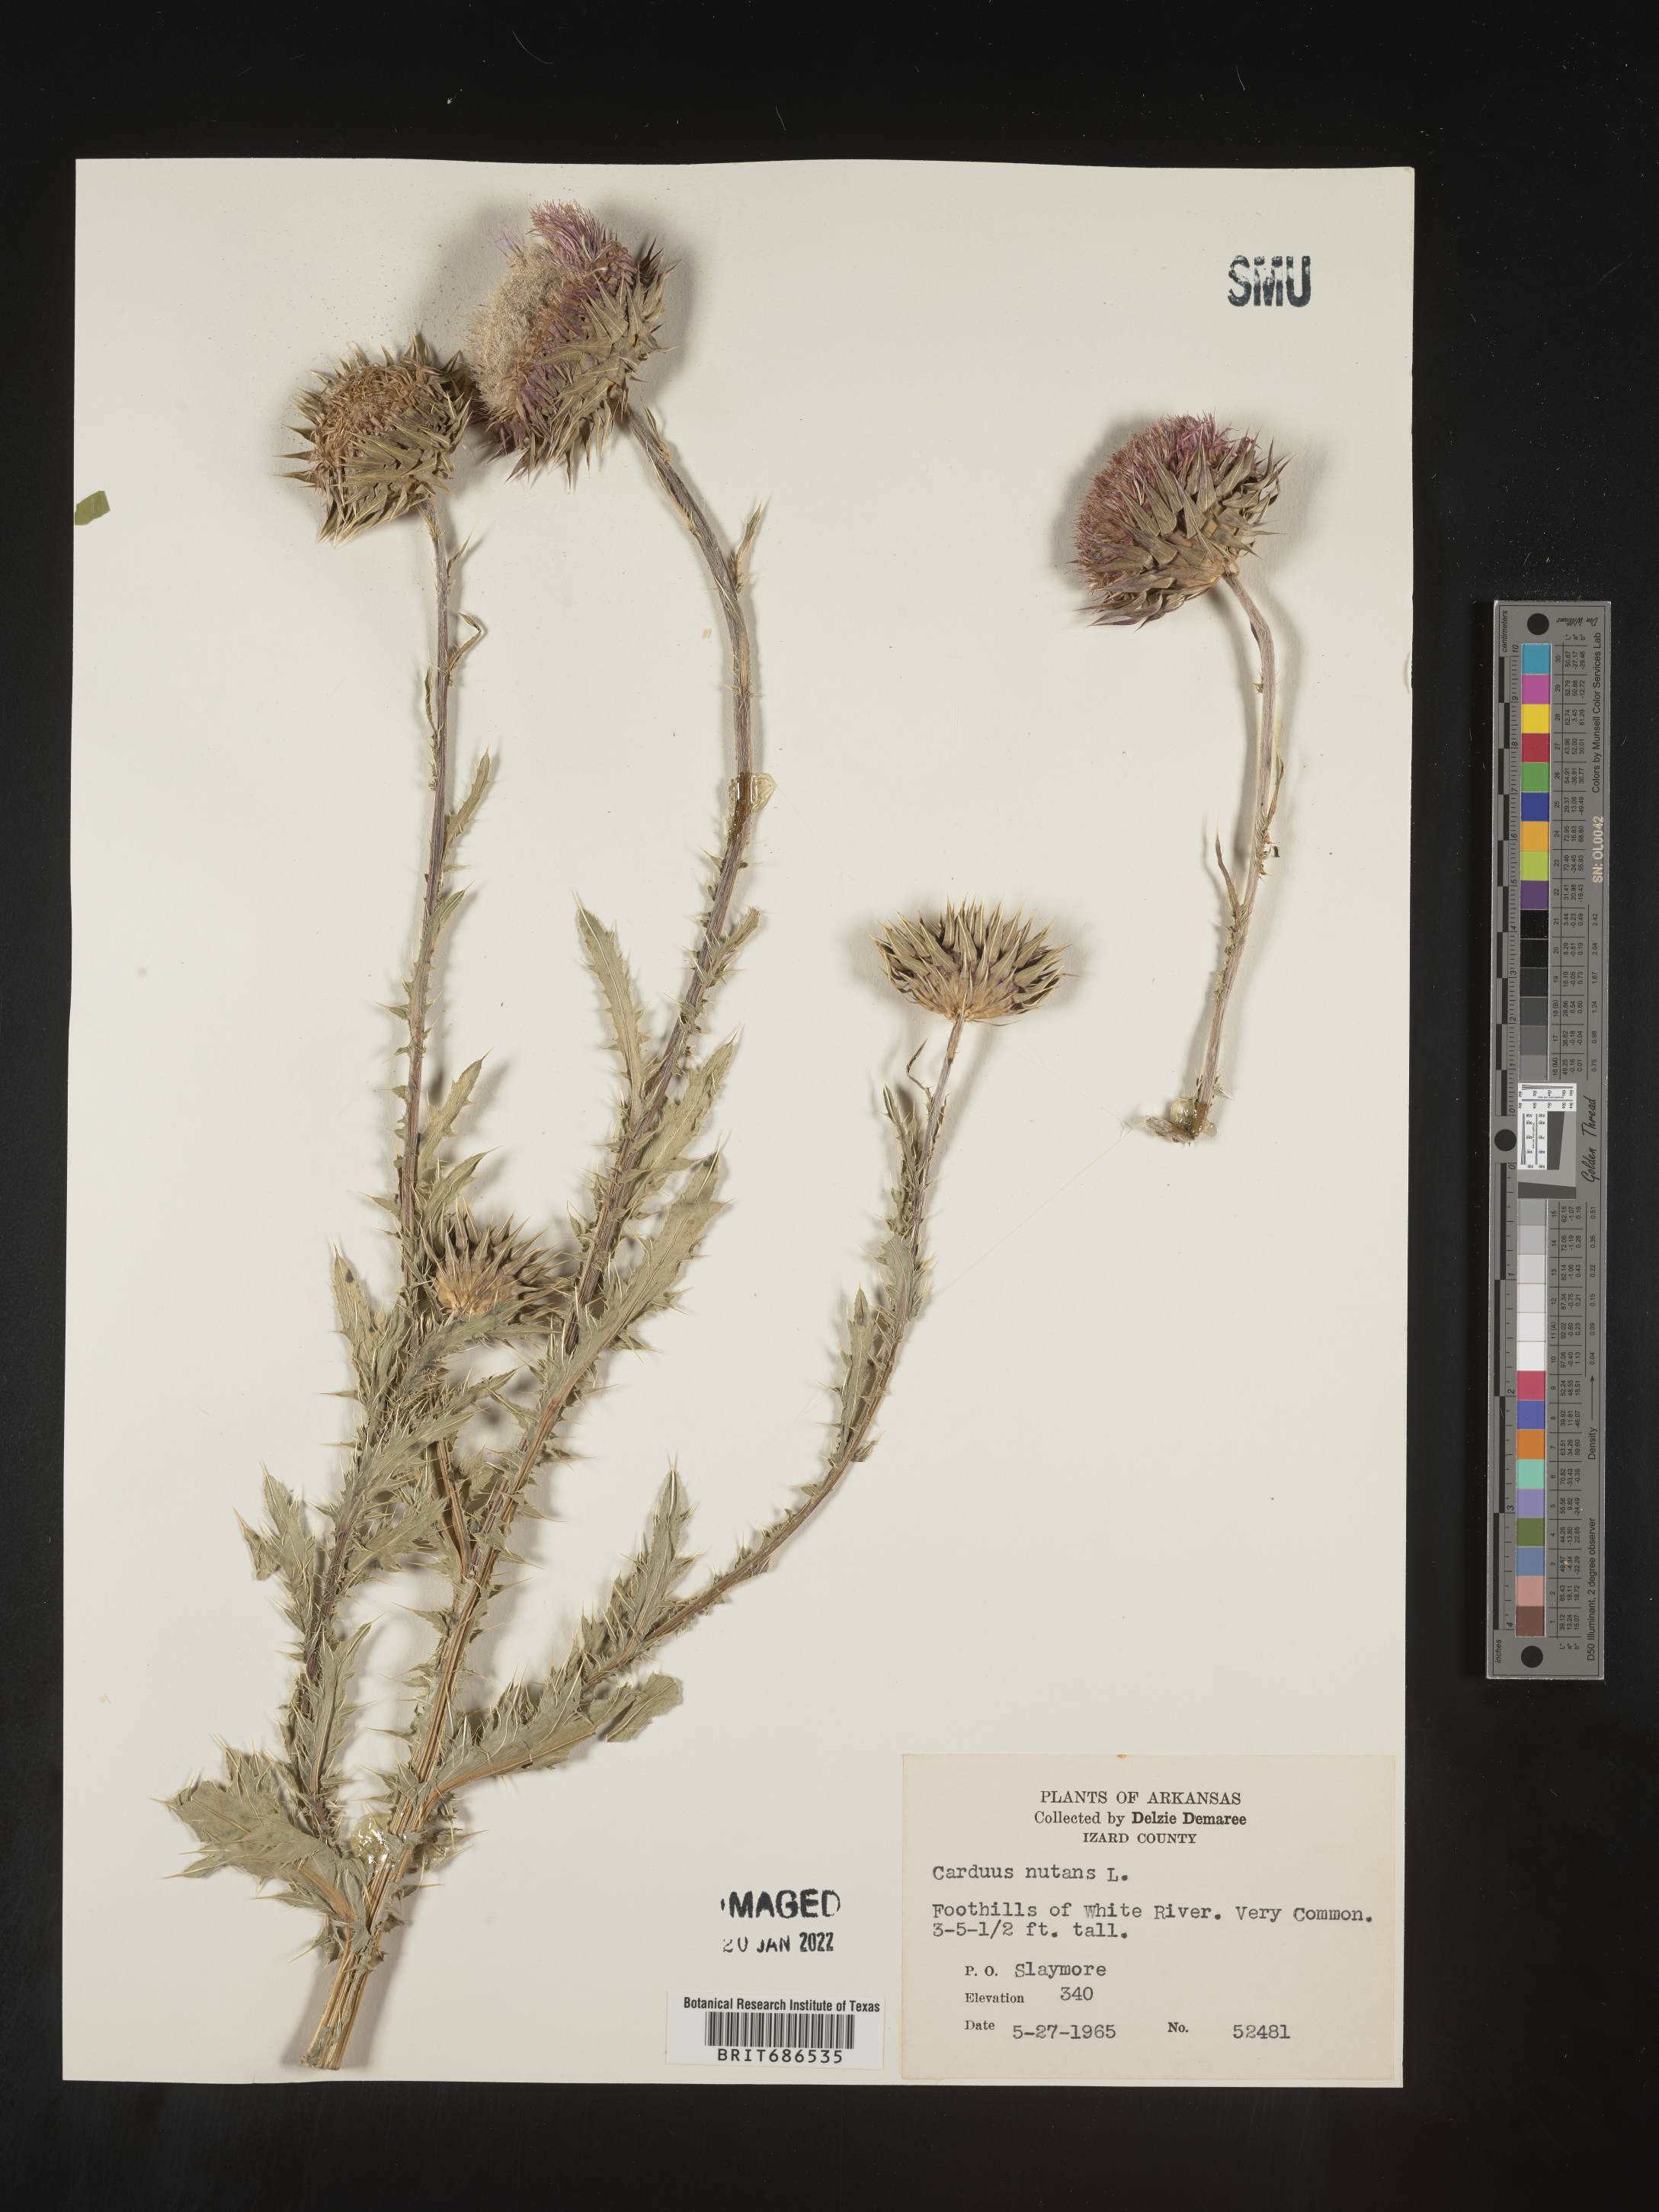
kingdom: Plantae
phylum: Tracheophyta
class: Magnoliopsida
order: Asterales
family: Asteraceae
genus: Carduus
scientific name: Carduus nutans
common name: Musk thistle
